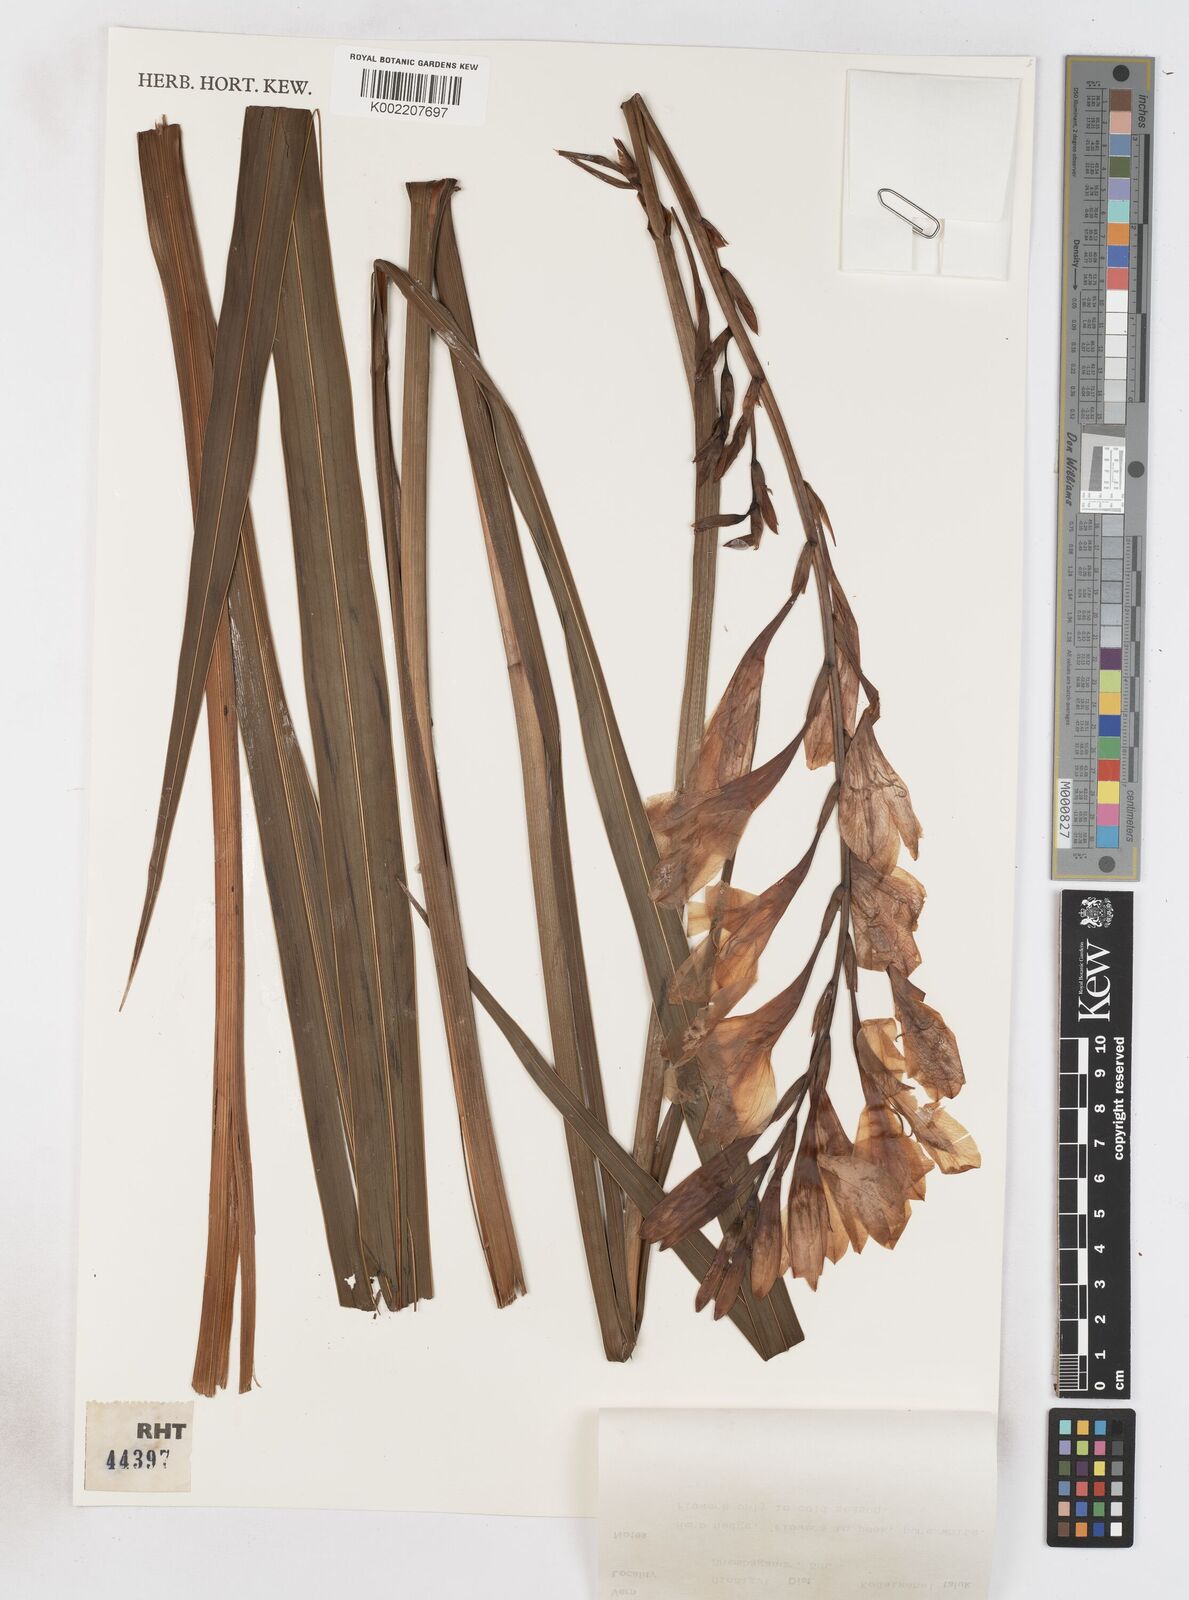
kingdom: Plantae
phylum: Tracheophyta
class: Liliopsida
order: Asparagales
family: Iridaceae
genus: Watsonia
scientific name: Watsonia borbonica
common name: Bugle-lily
